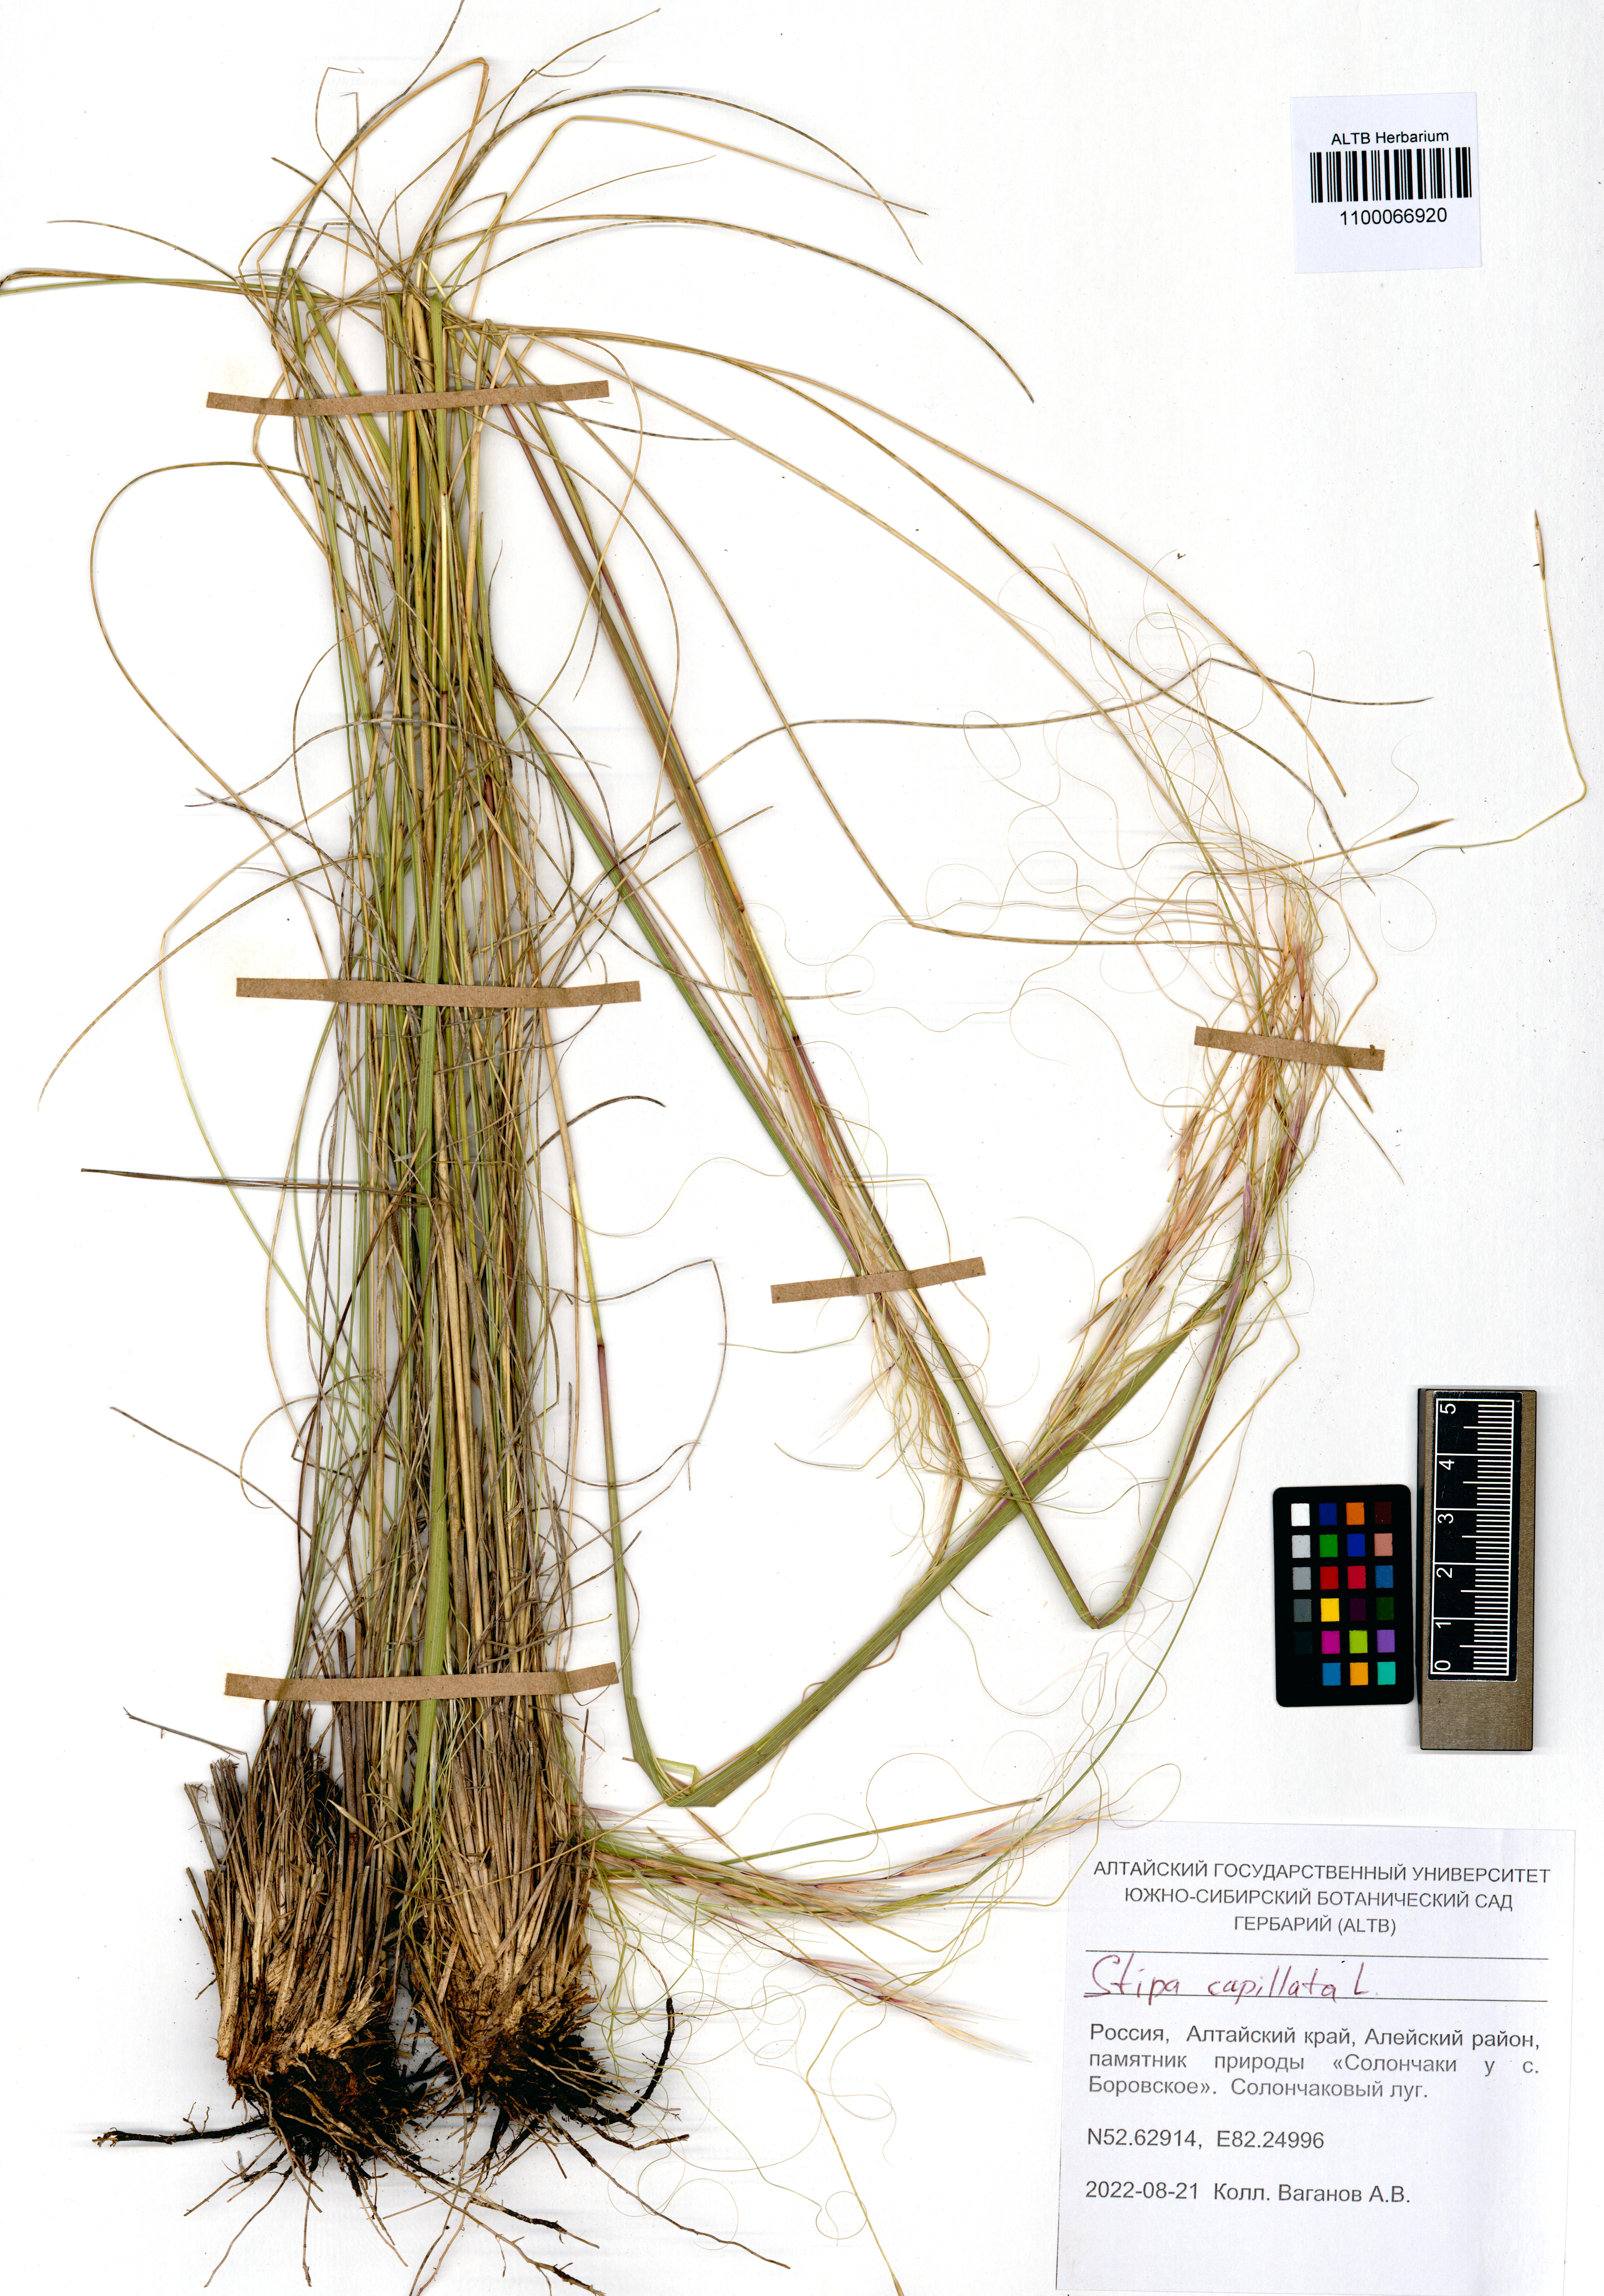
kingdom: Plantae
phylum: Tracheophyta
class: Liliopsida
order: Poales
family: Poaceae
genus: Stipa
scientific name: Stipa capillata
